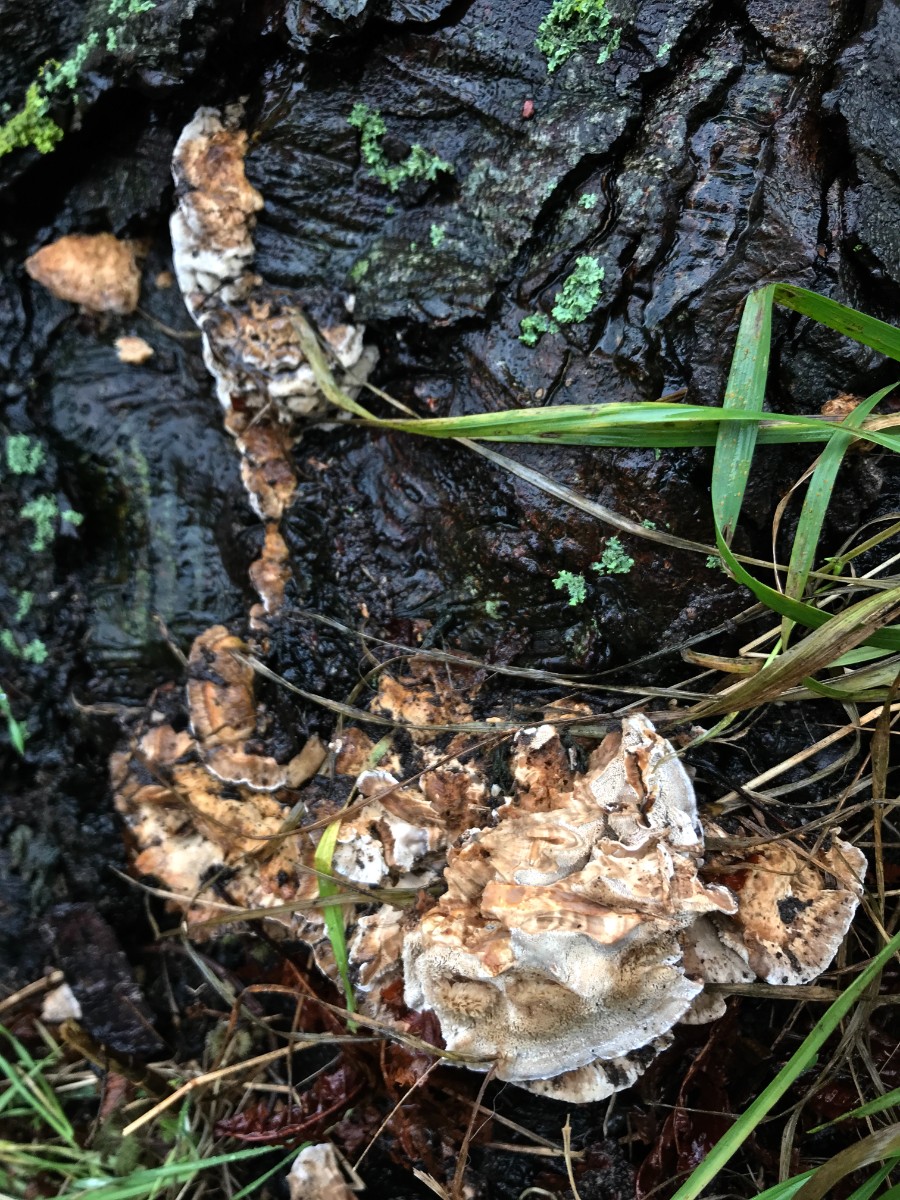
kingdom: Fungi
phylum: Basidiomycota
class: Agaricomycetes
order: Polyporales
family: Phanerochaetaceae
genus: Bjerkandera
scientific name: Bjerkandera fumosa
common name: grågul sodporesvamp
